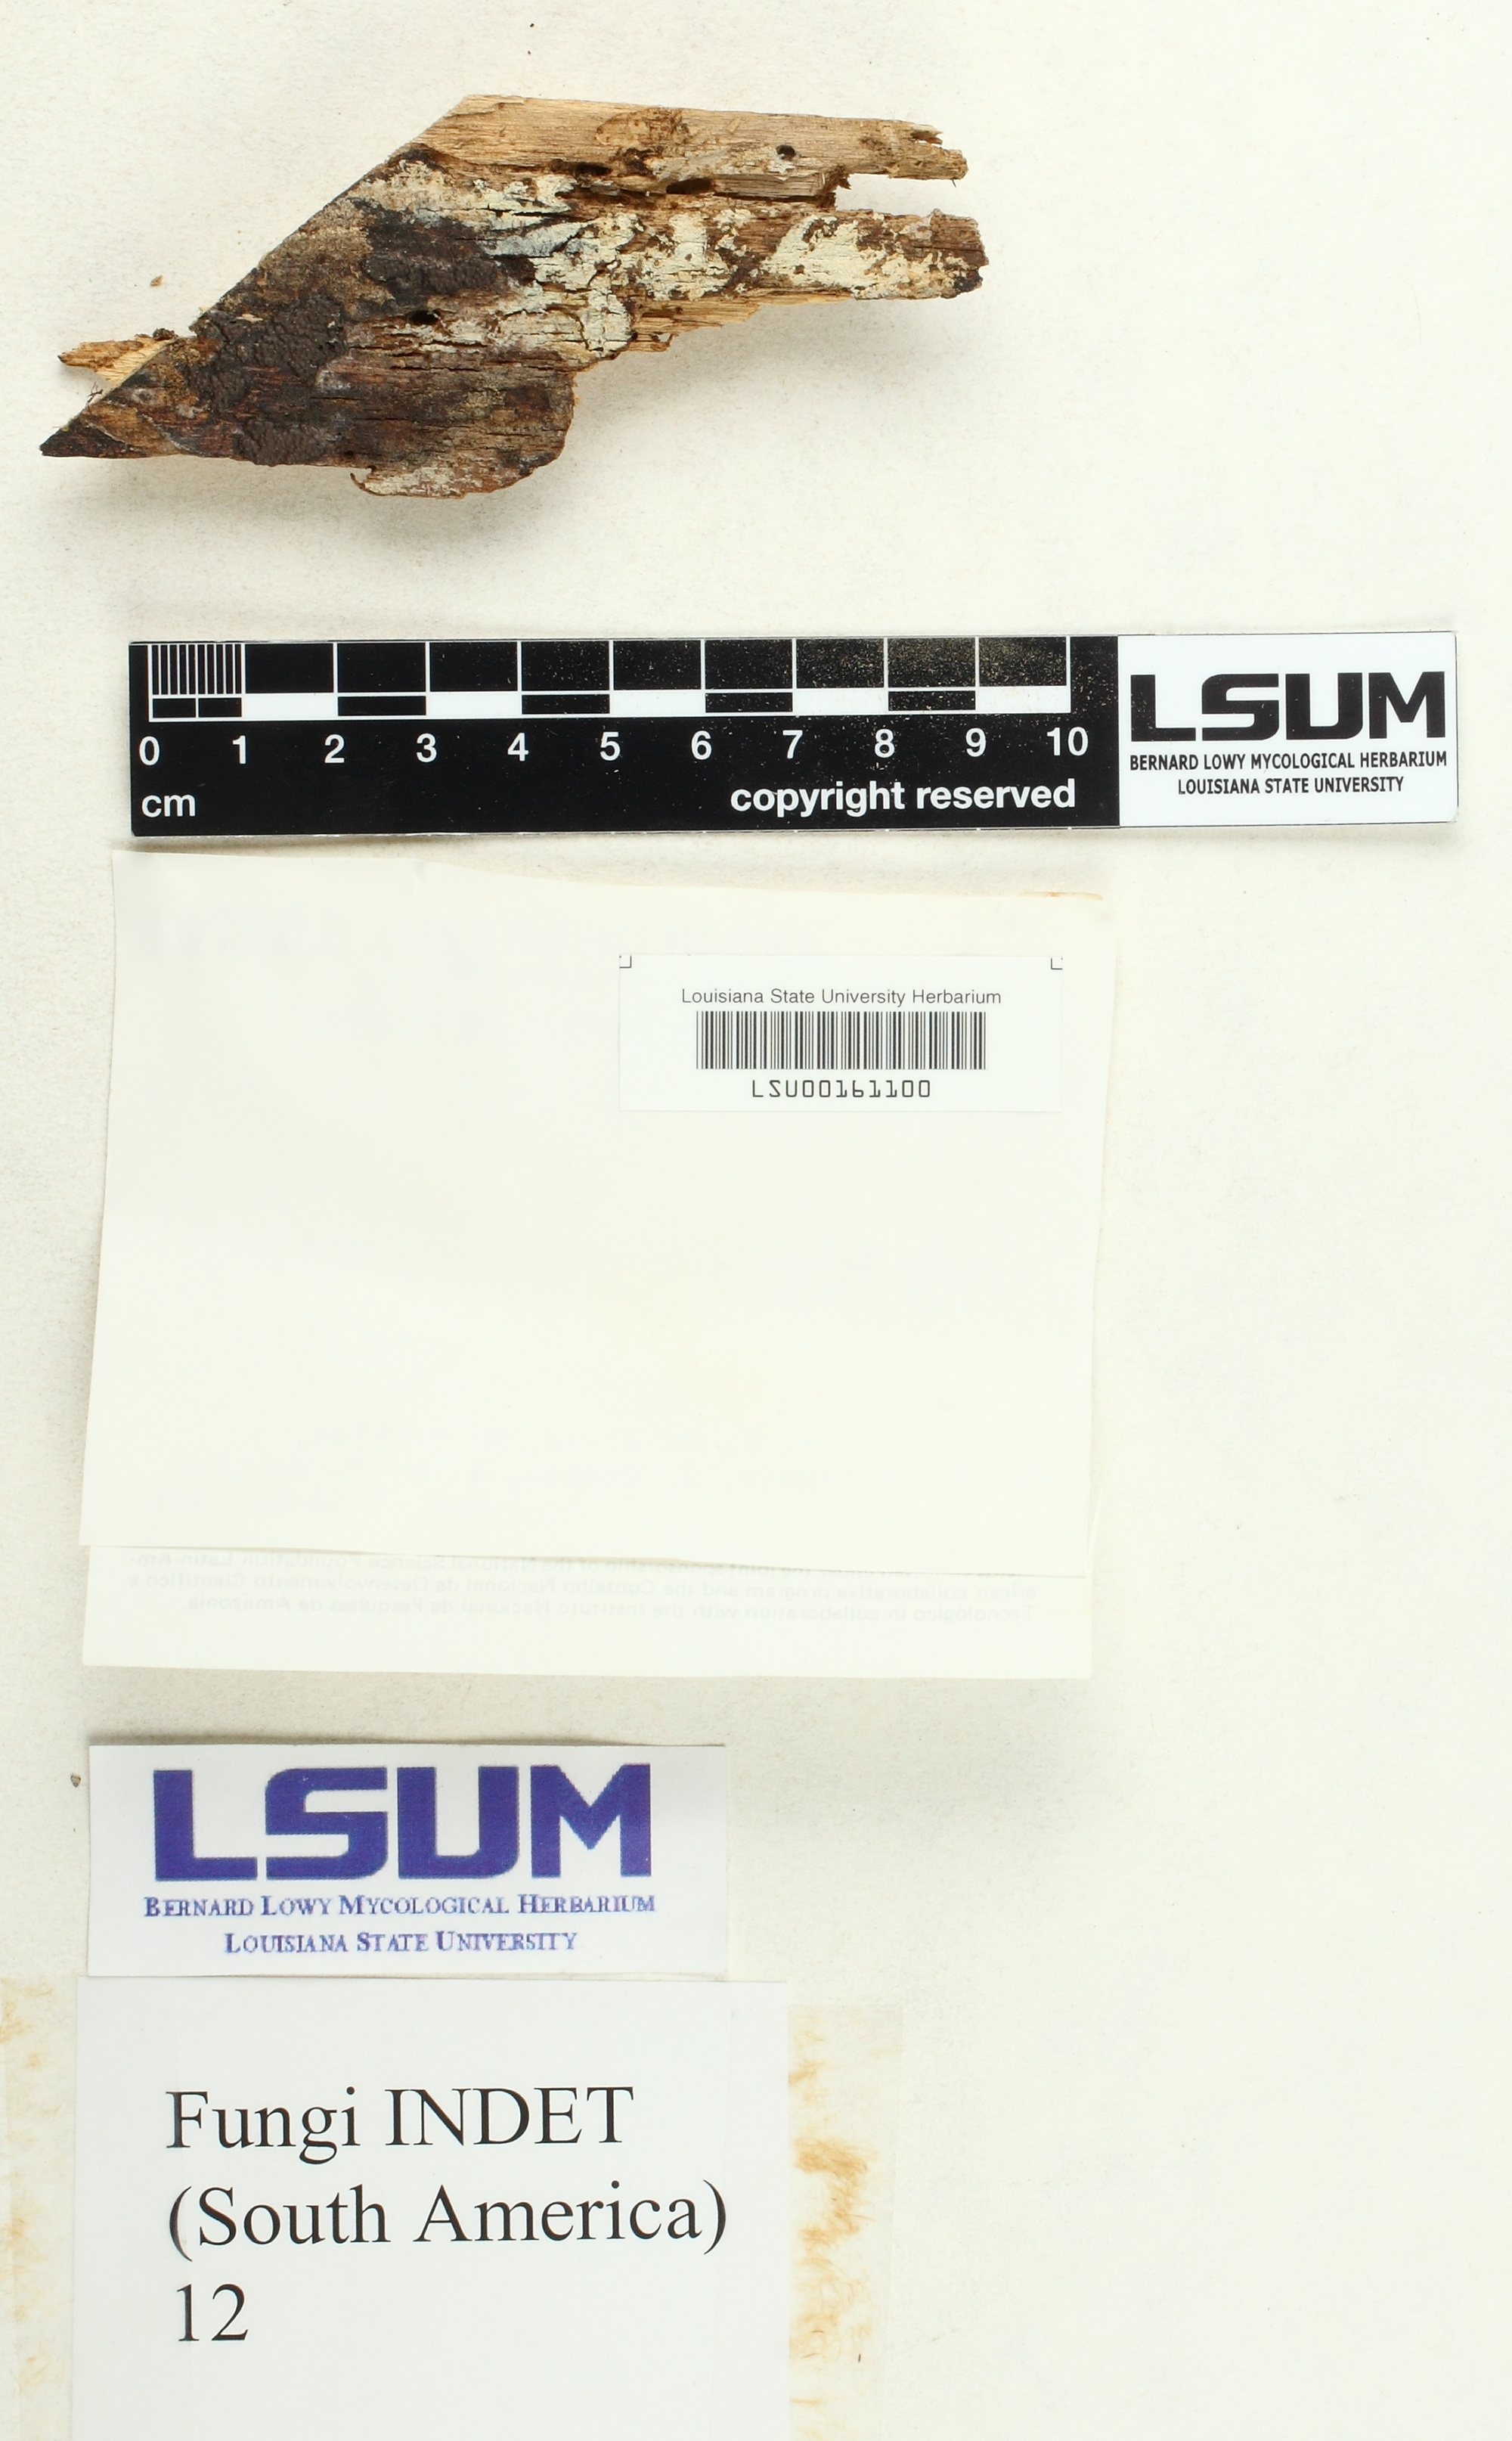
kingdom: Fungi
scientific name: Fungi
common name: Fungi
